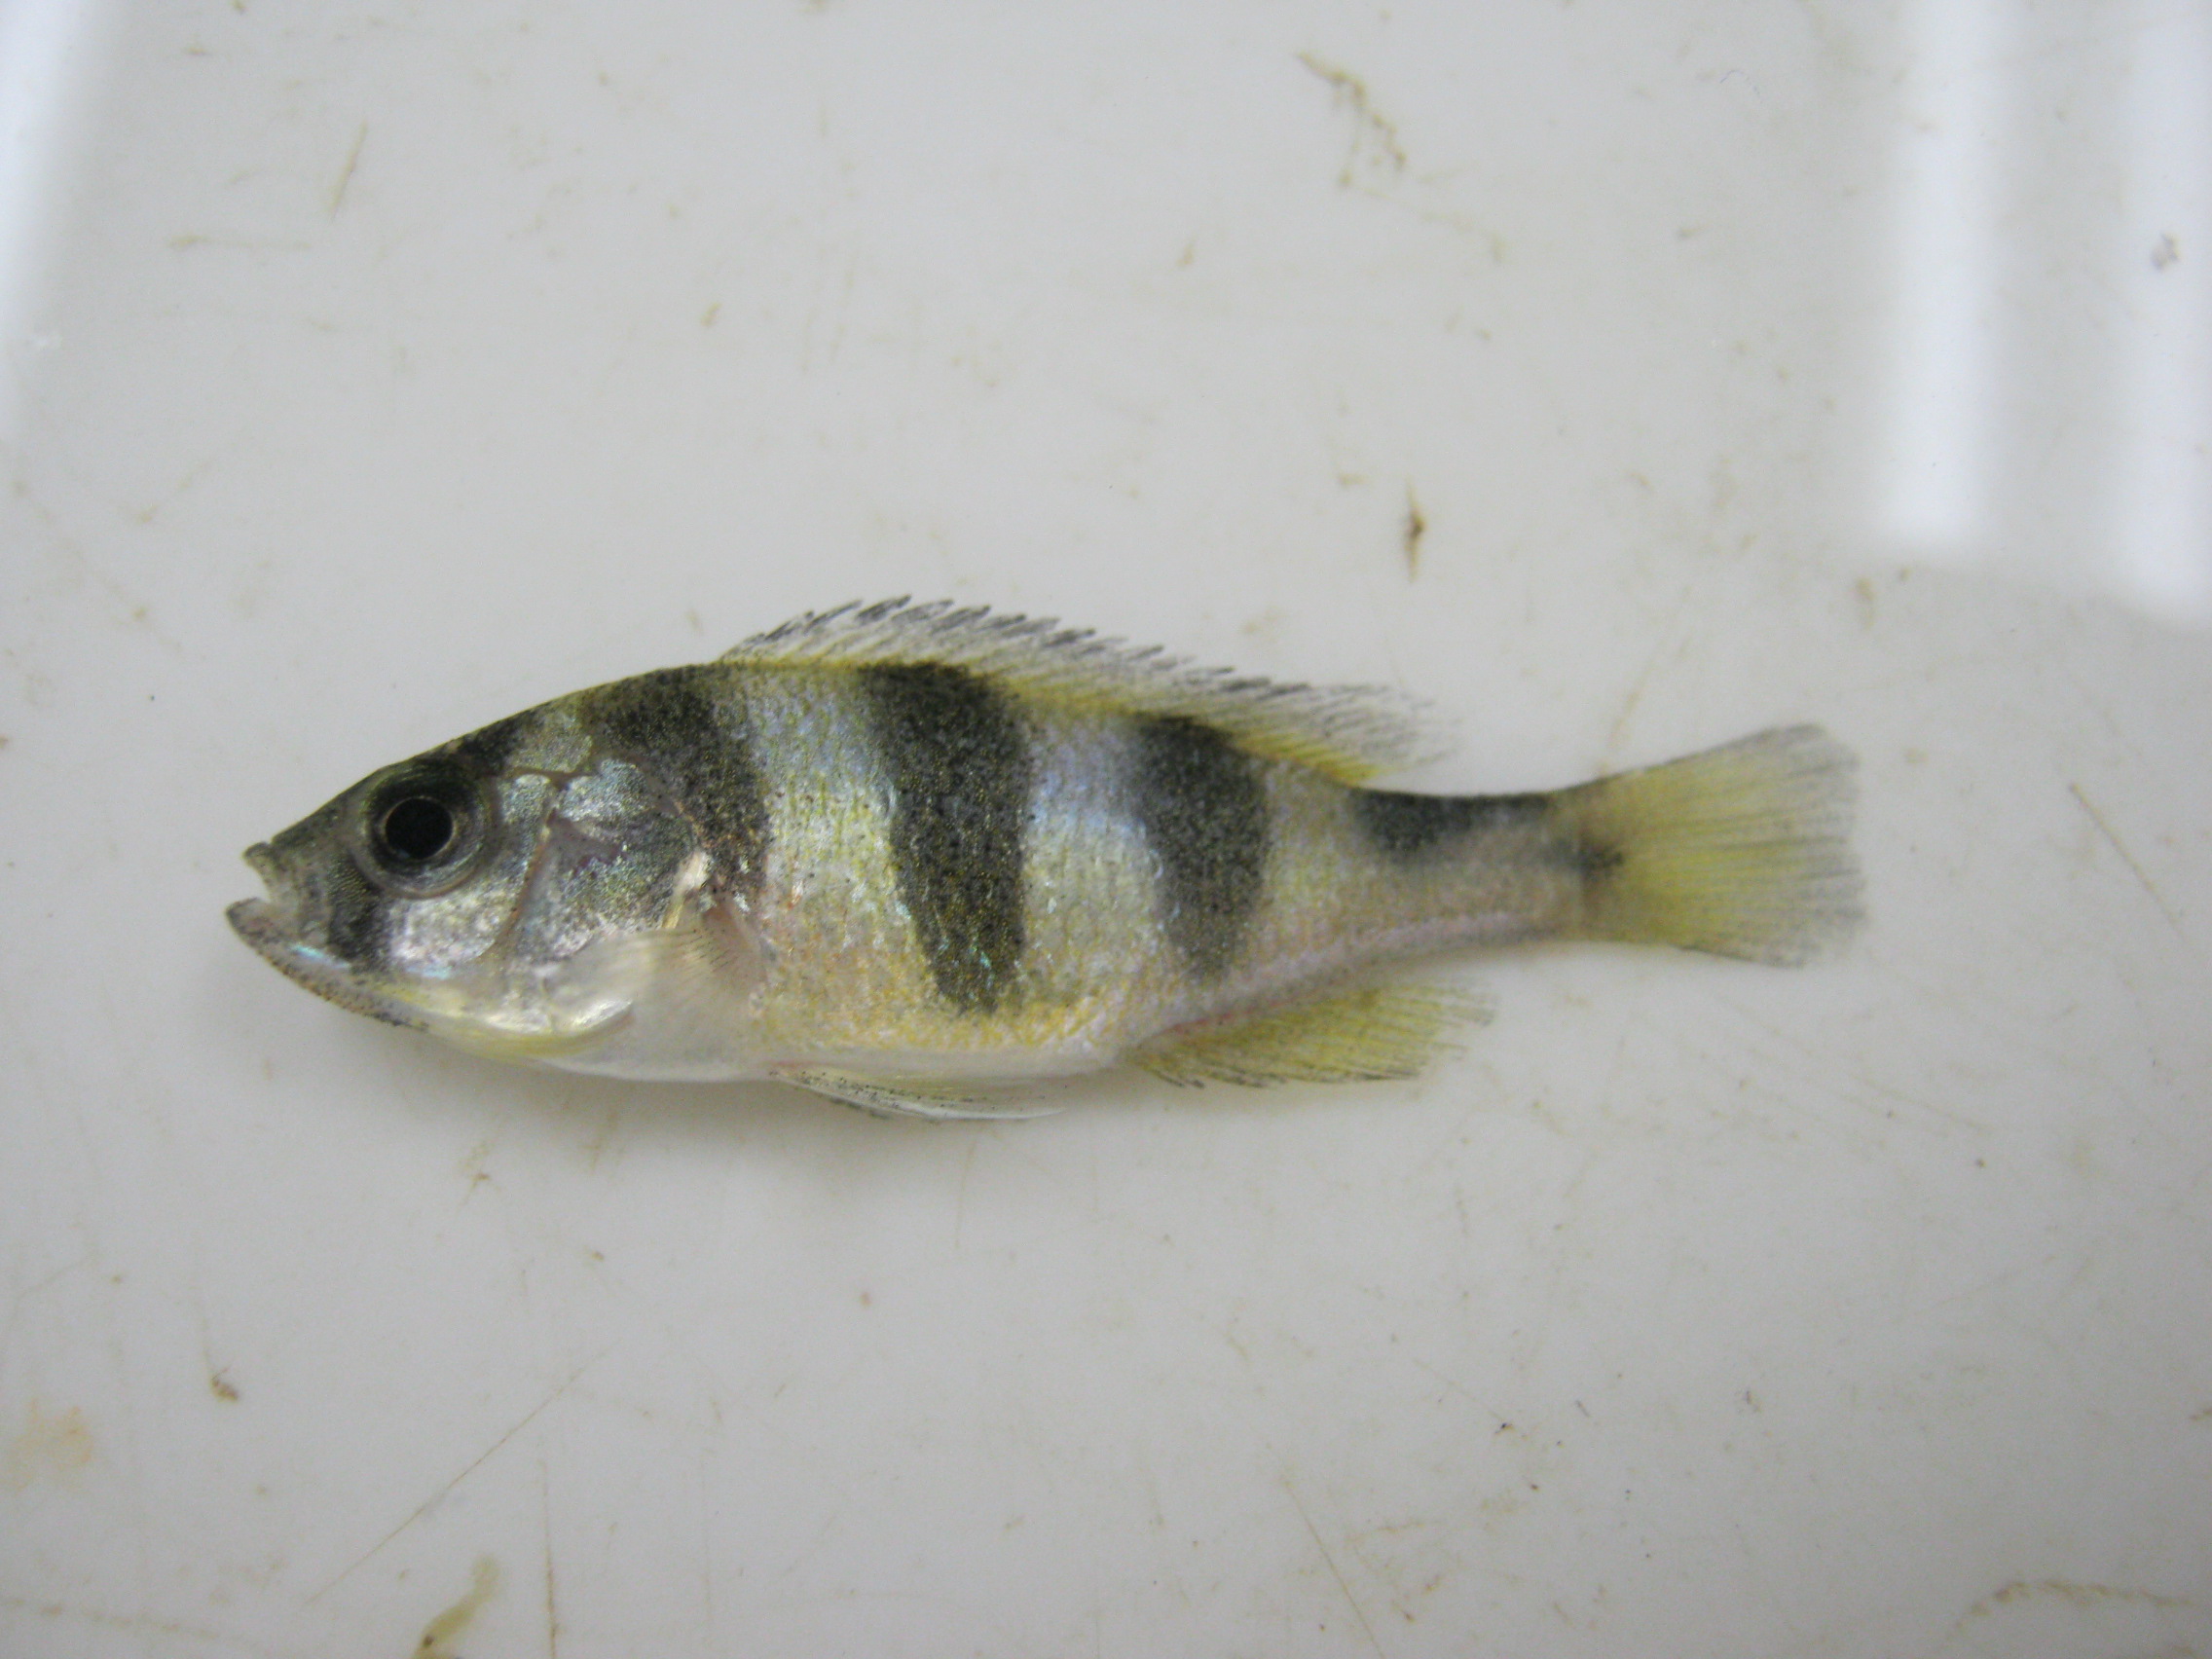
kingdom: Animalia
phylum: Chordata
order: Perciformes
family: Cichlidae
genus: Haplochromis
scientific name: Haplochromis latifasciatus
